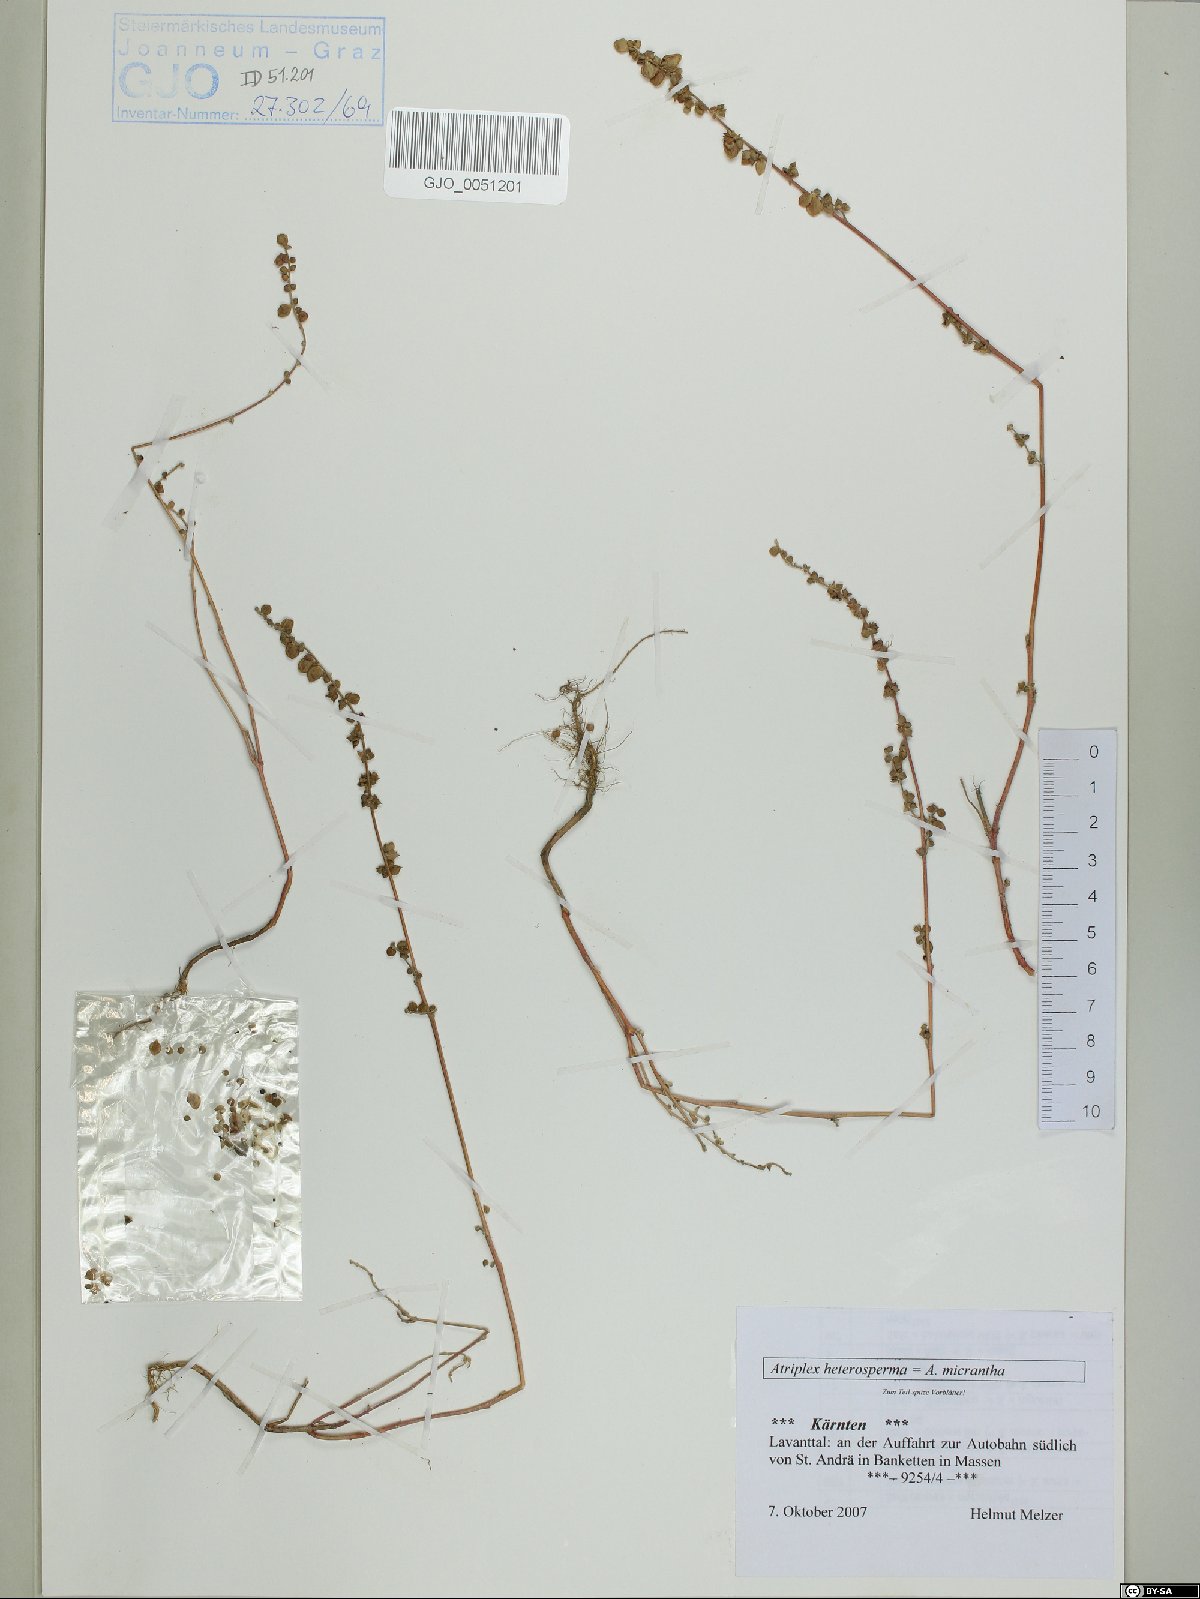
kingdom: Plantae
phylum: Tracheophyta
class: Magnoliopsida
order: Caryophyllales
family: Amaranthaceae
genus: Atriplex
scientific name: Atriplex micrantha
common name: Twoscale saltbush
